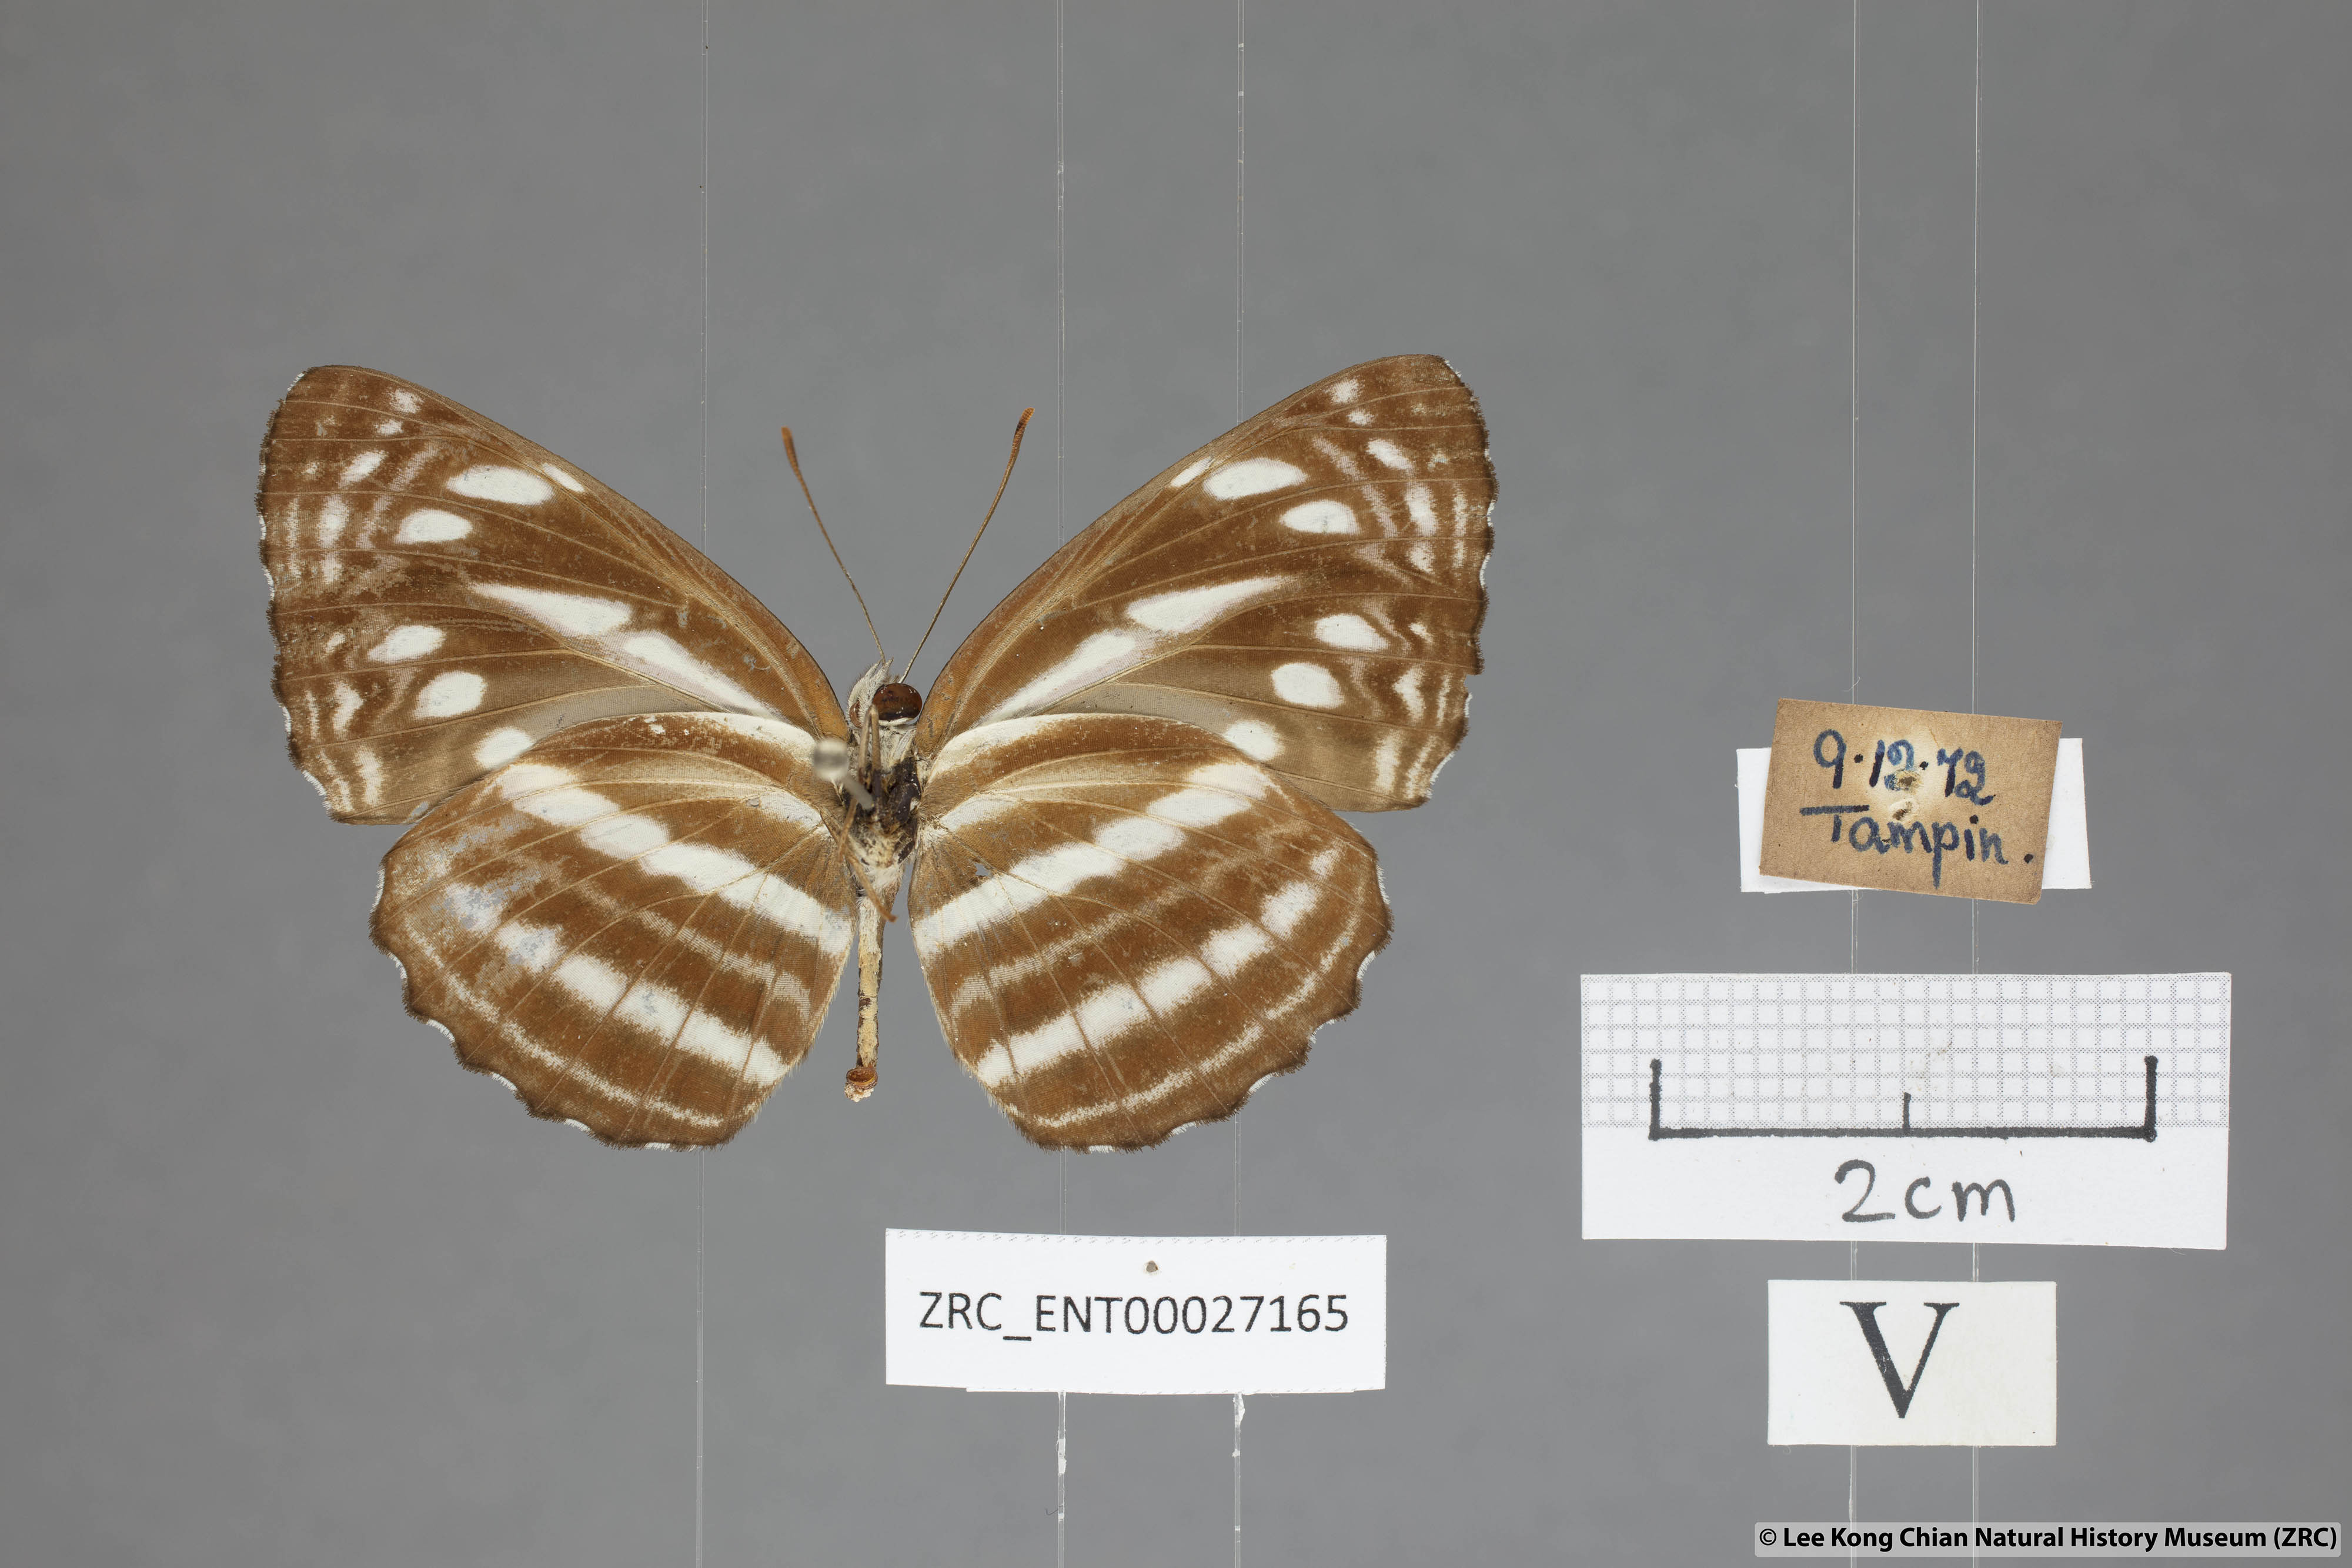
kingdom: Animalia
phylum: Arthropoda
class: Insecta
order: Lepidoptera
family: Nymphalidae
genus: Neptis
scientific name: Neptis nata
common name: Sullied brown sailer
